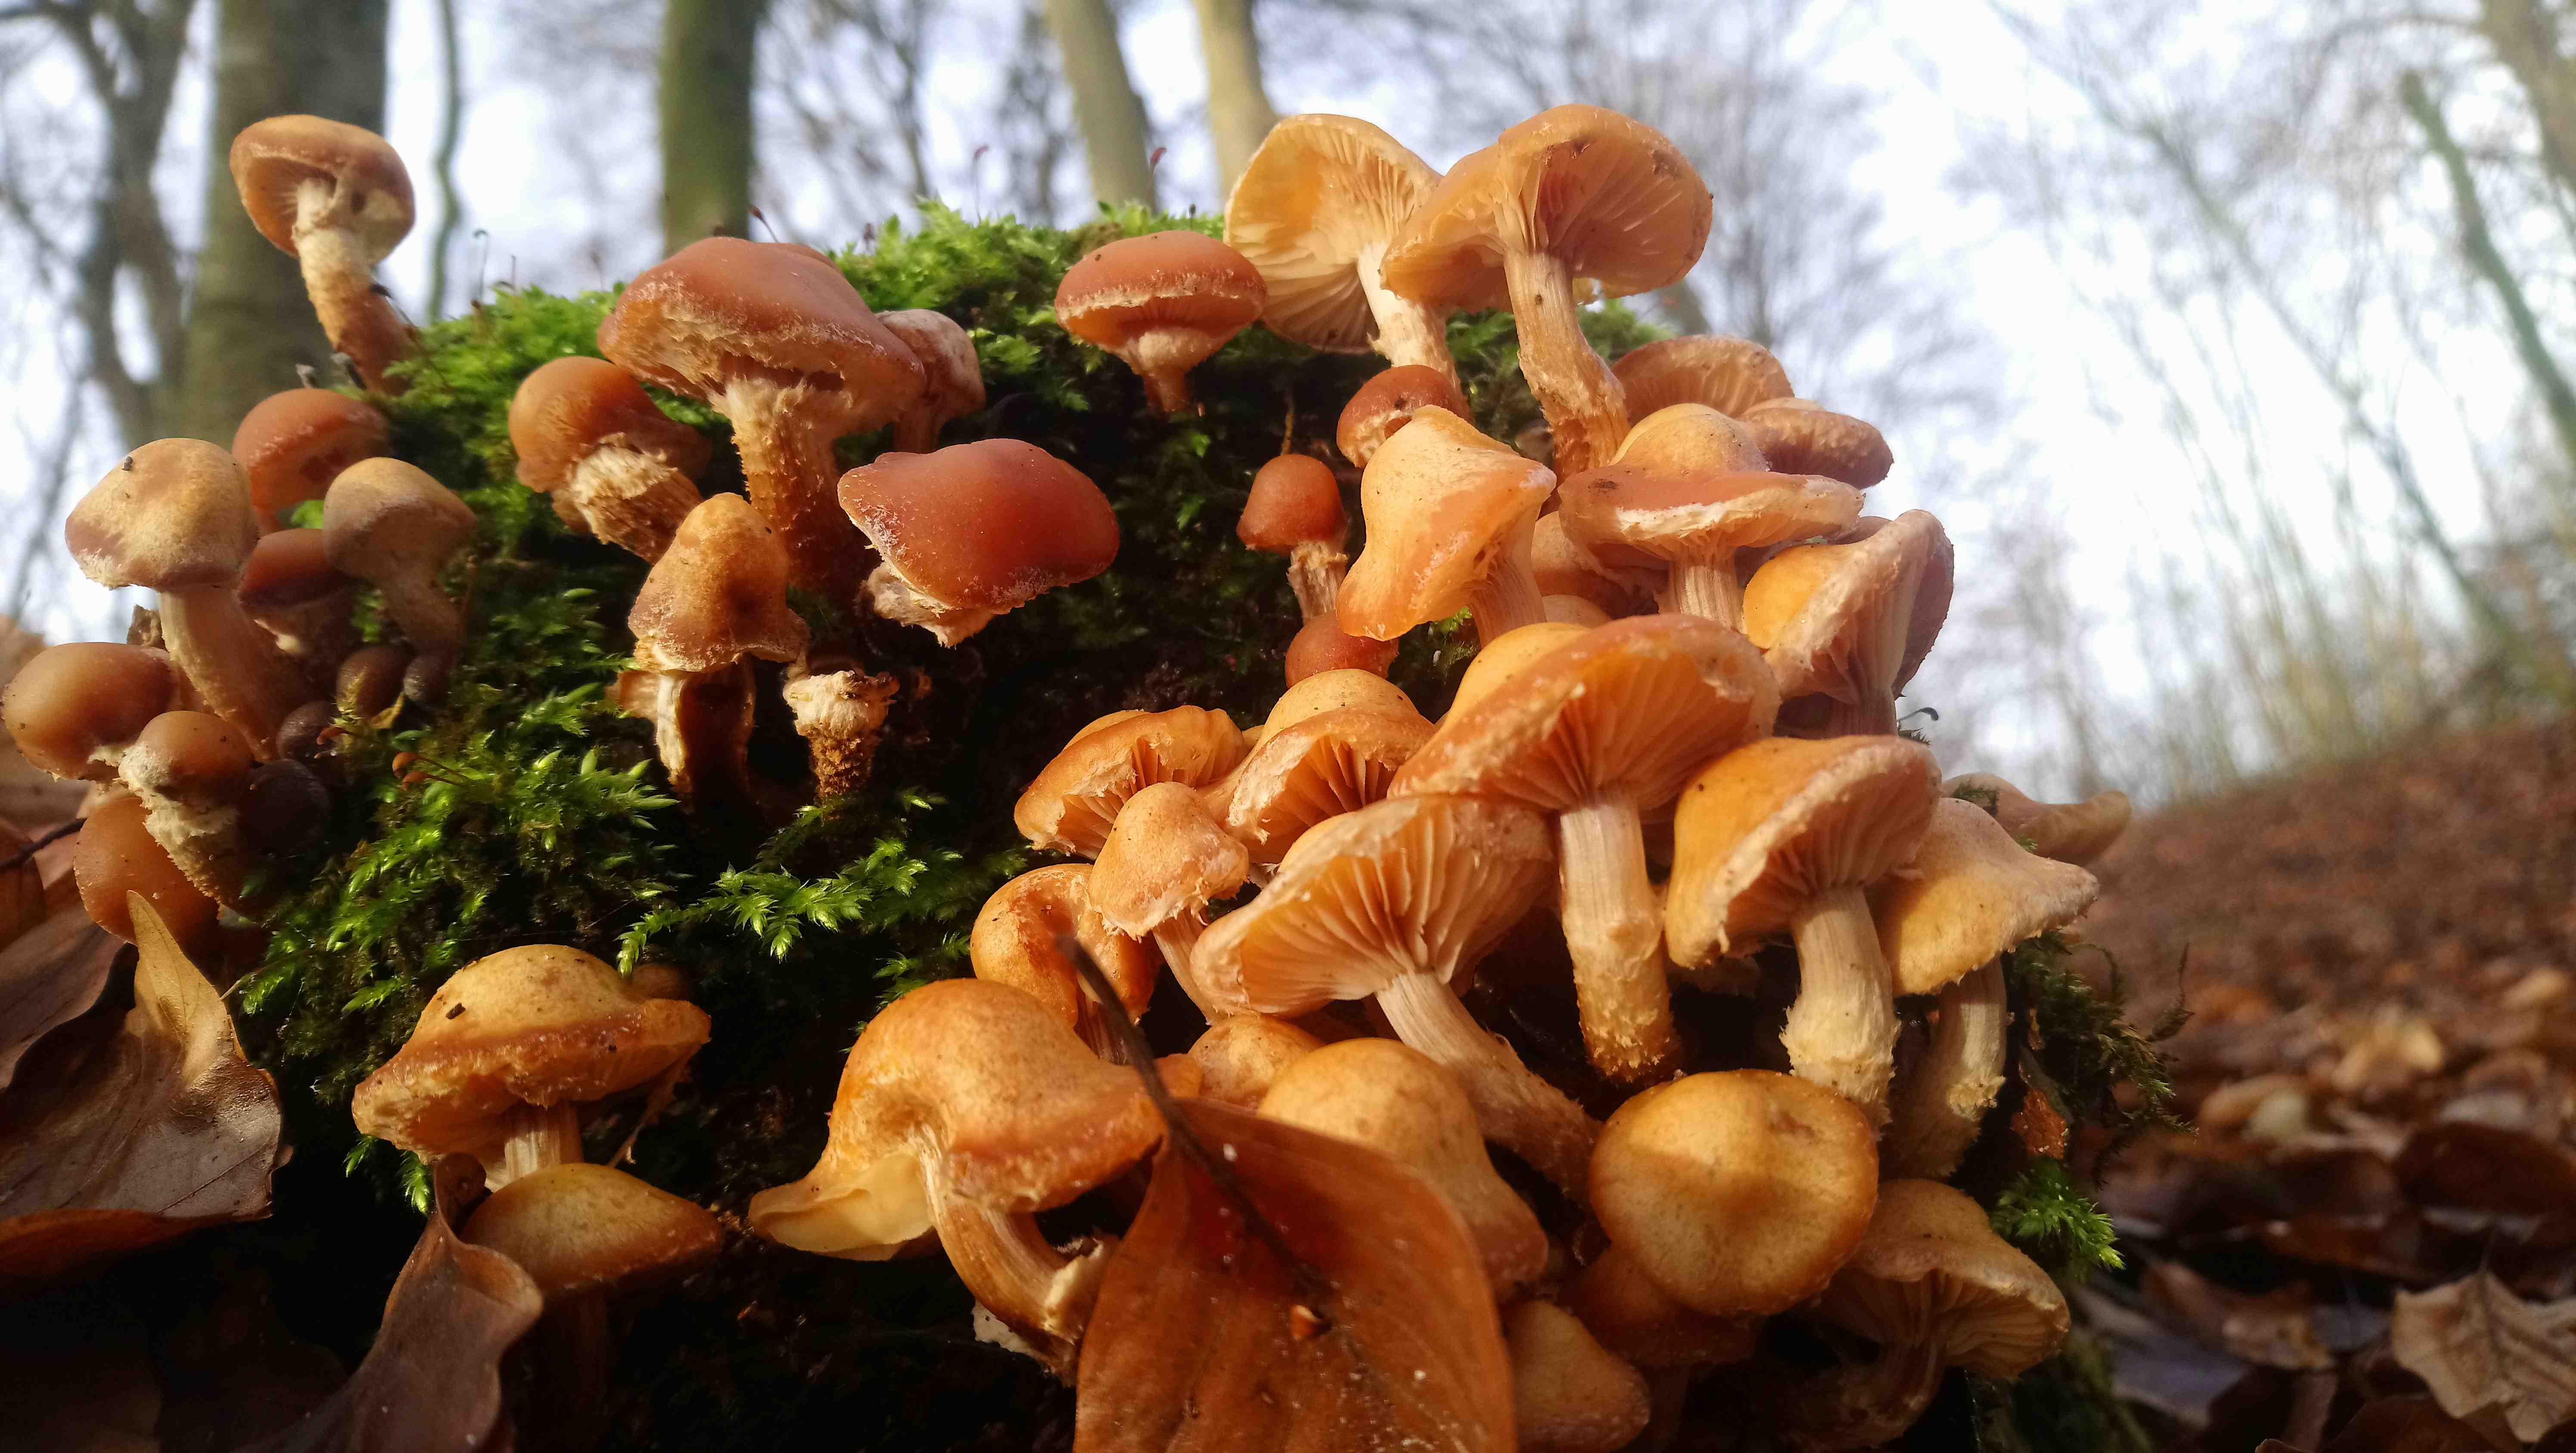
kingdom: Fungi
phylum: Basidiomycota
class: Agaricomycetes
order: Agaricales
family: Strophariaceae
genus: Kuehneromyces
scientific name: Kuehneromyces mutabilis
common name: foranderlig skælhat
